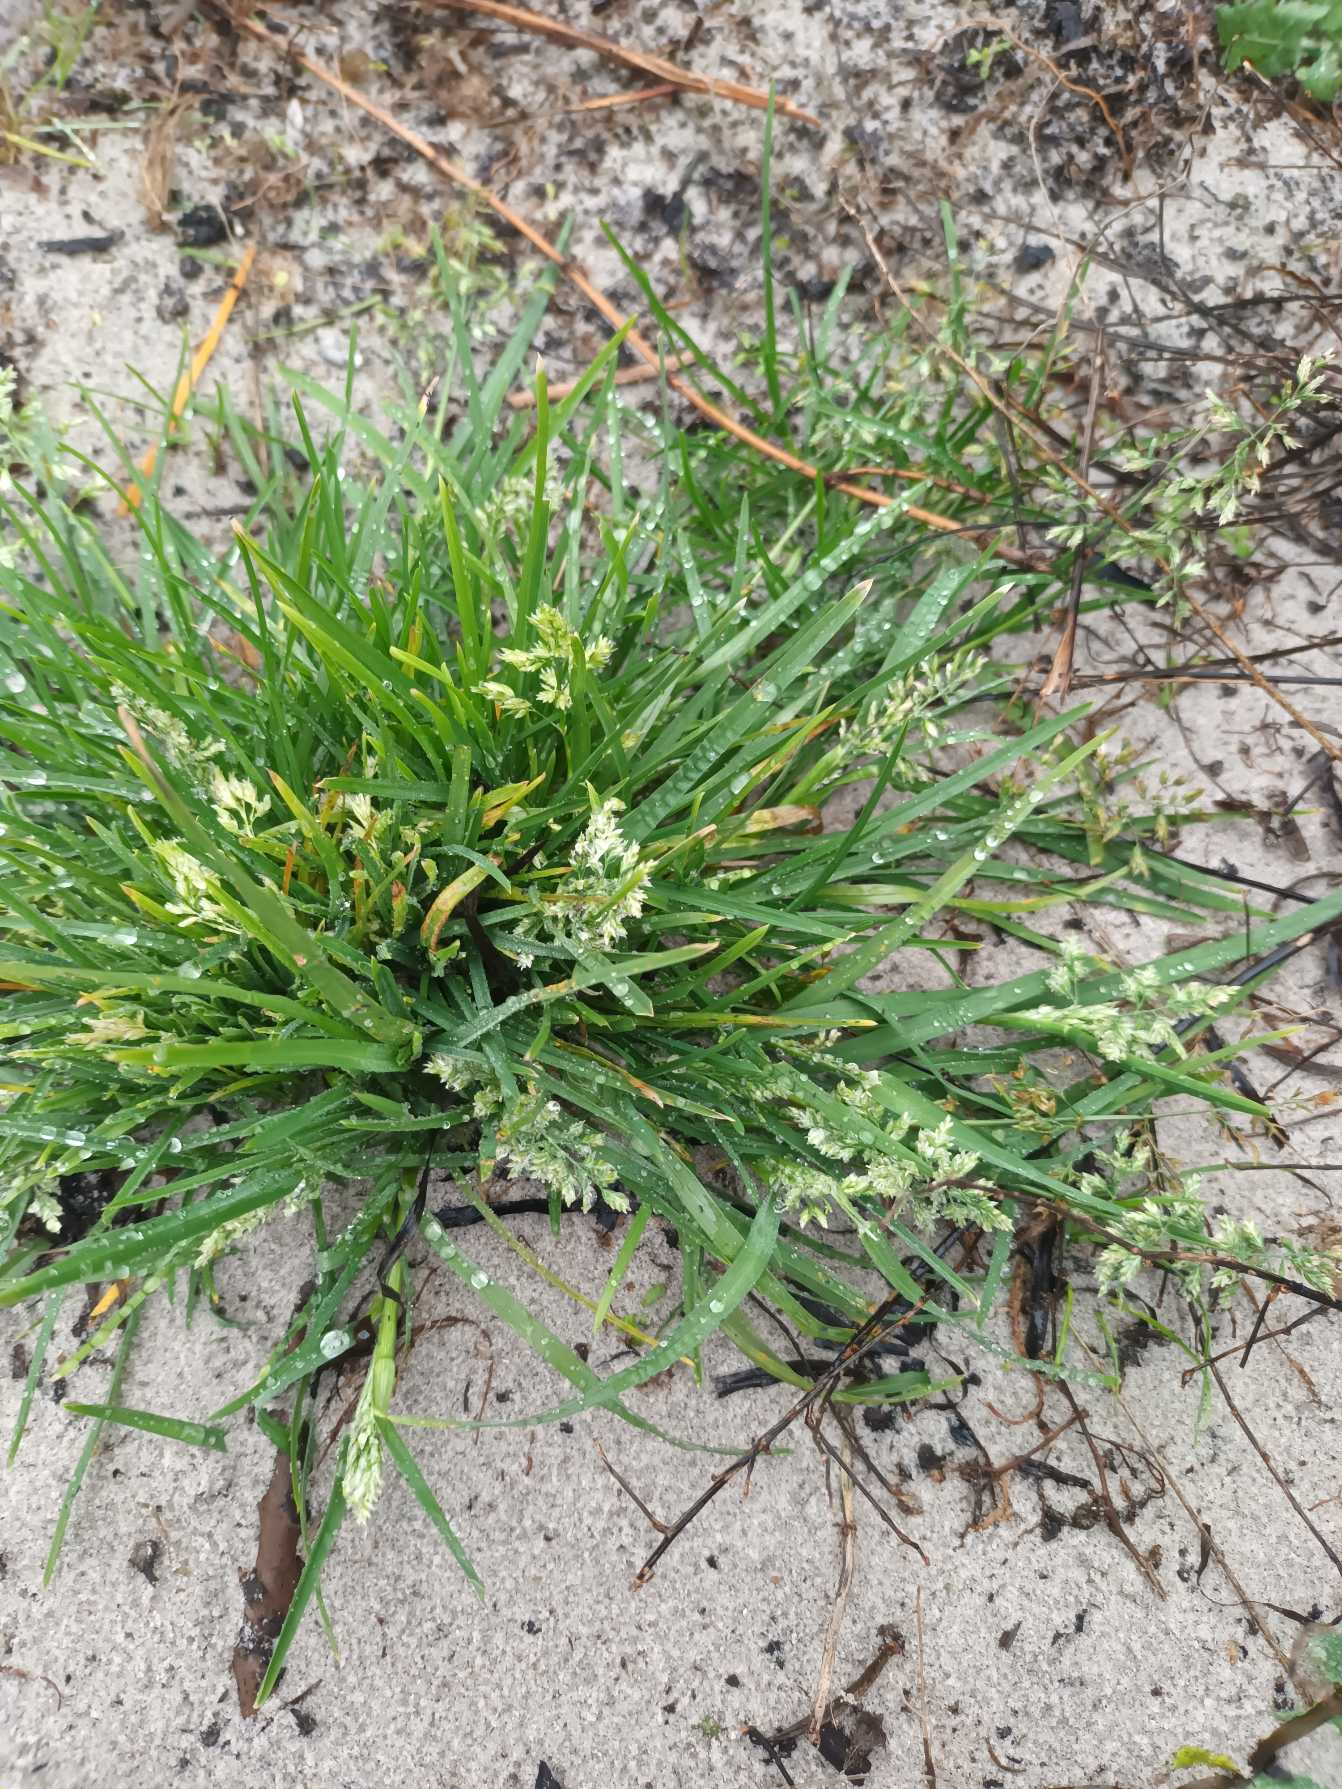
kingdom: Plantae
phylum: Tracheophyta
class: Liliopsida
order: Poales
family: Poaceae
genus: Poa
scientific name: Poa annua
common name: Enårig rapgræs
